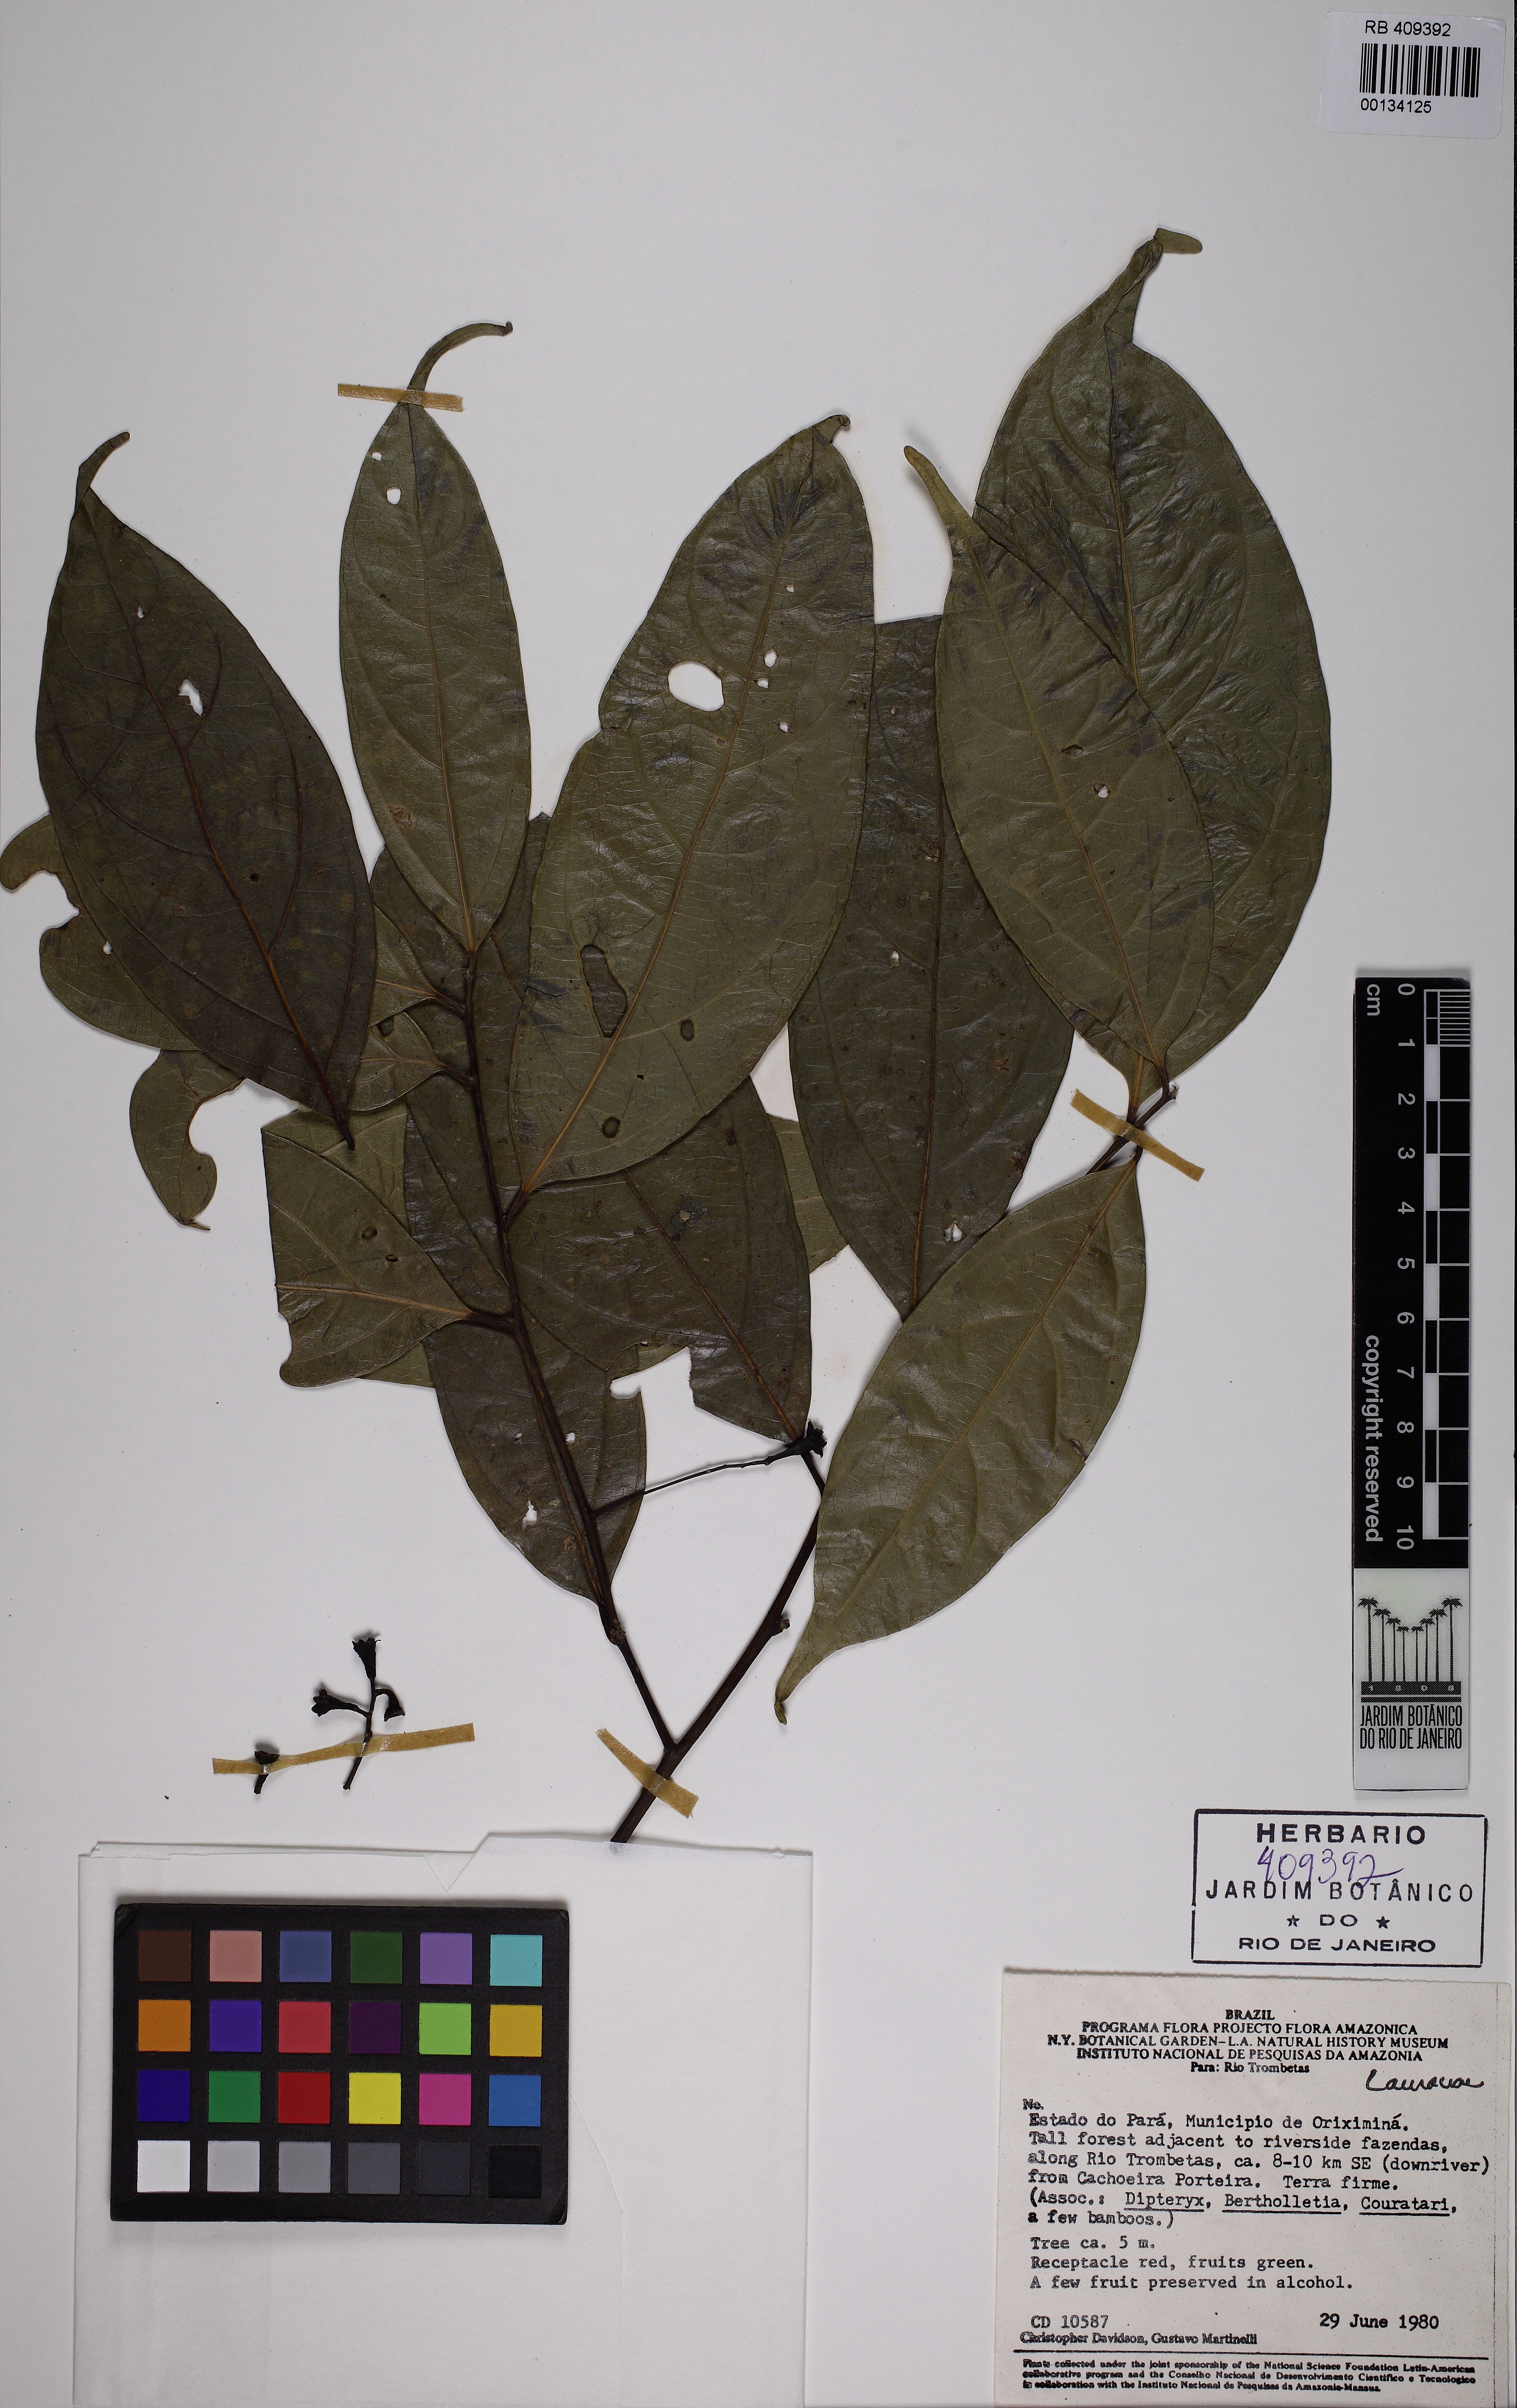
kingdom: Plantae
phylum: Tracheophyta
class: Magnoliopsida
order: Laurales
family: Lauraceae
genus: Ocotea
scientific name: Ocotea camphoromoea
